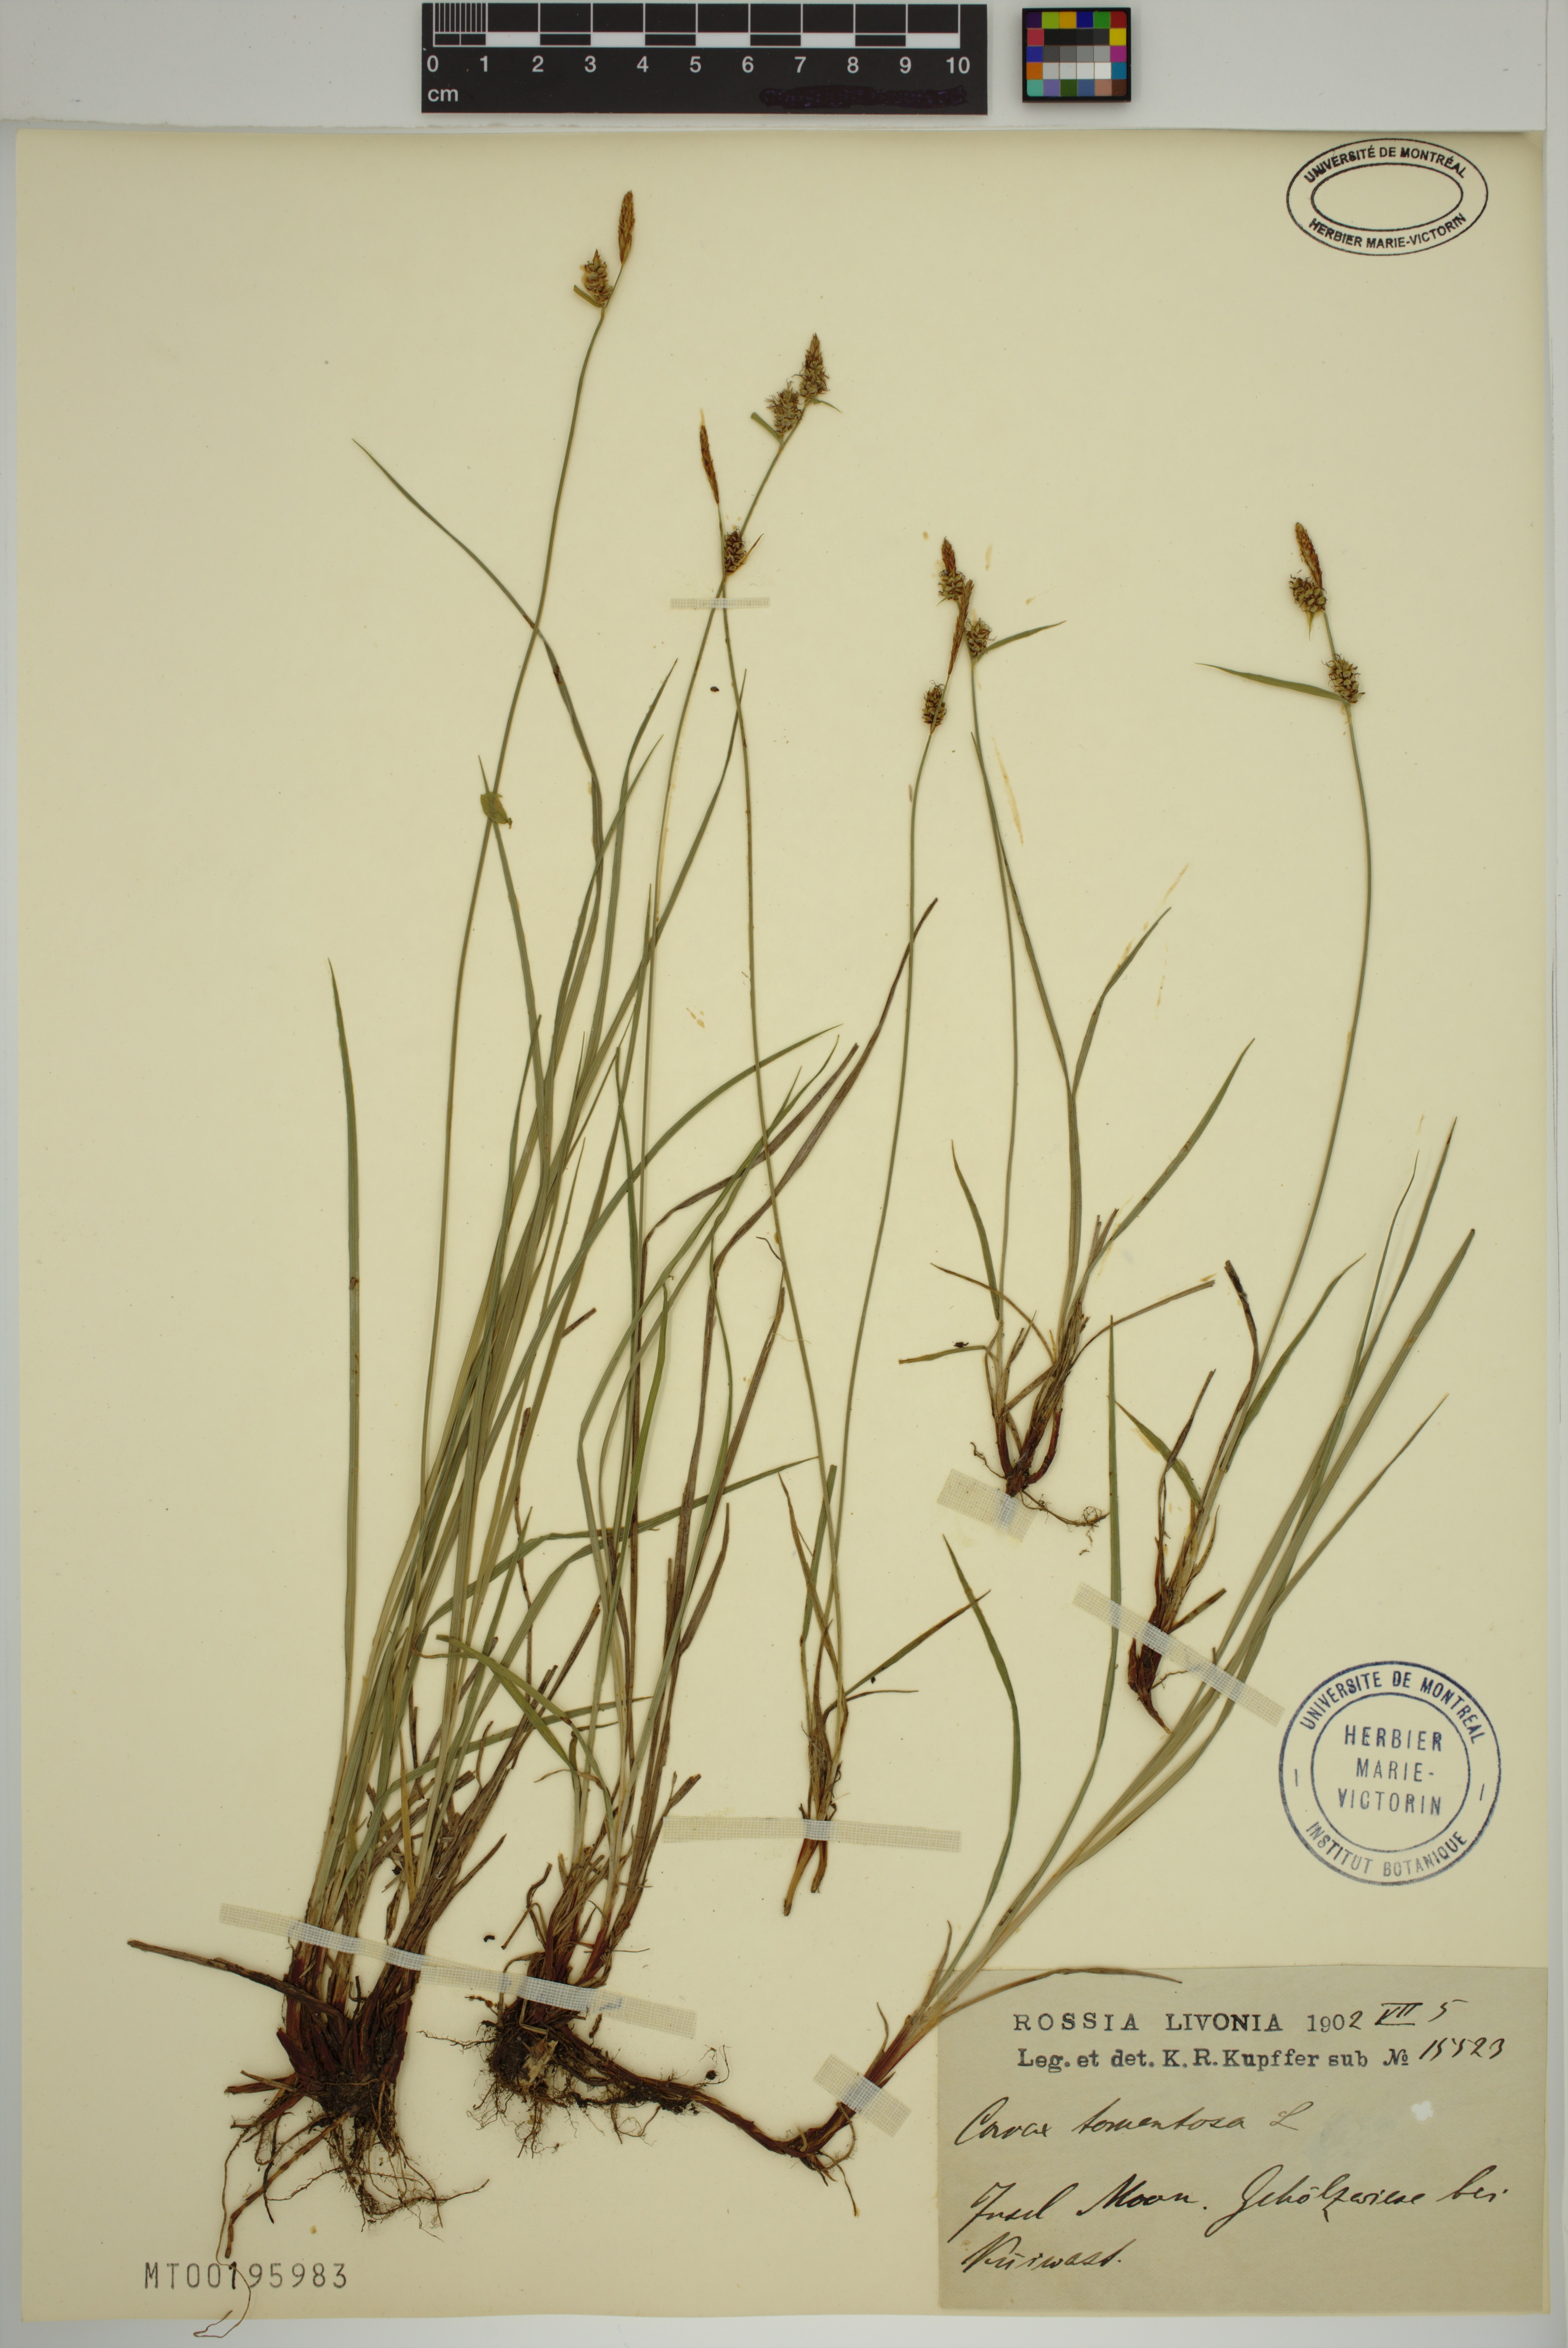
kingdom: Plantae
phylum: Tracheophyta
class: Liliopsida
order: Poales
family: Cyperaceae
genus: Carex
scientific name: Carex tomentosa
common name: Downy-fruited sedge
